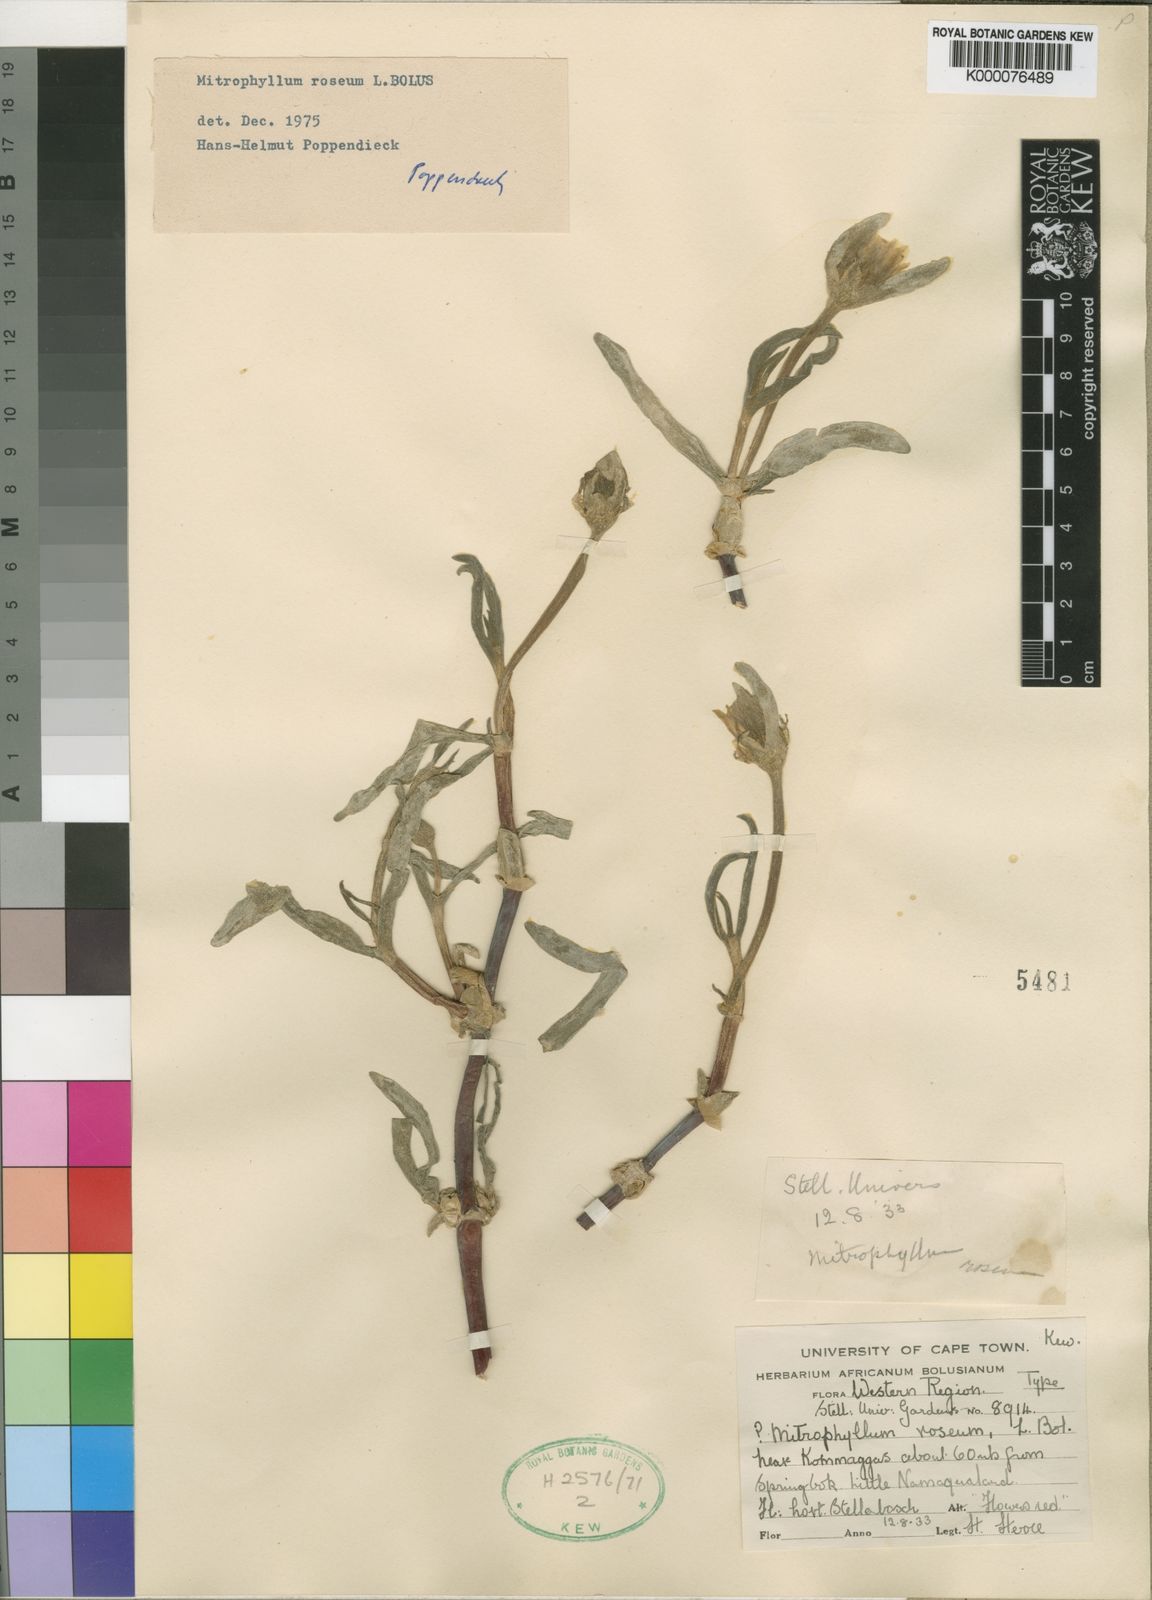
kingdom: Plantae
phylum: Tracheophyta
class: Magnoliopsida
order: Caryophyllales
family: Aizoaceae
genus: Mitrophyllum
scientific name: Mitrophyllum roseum
